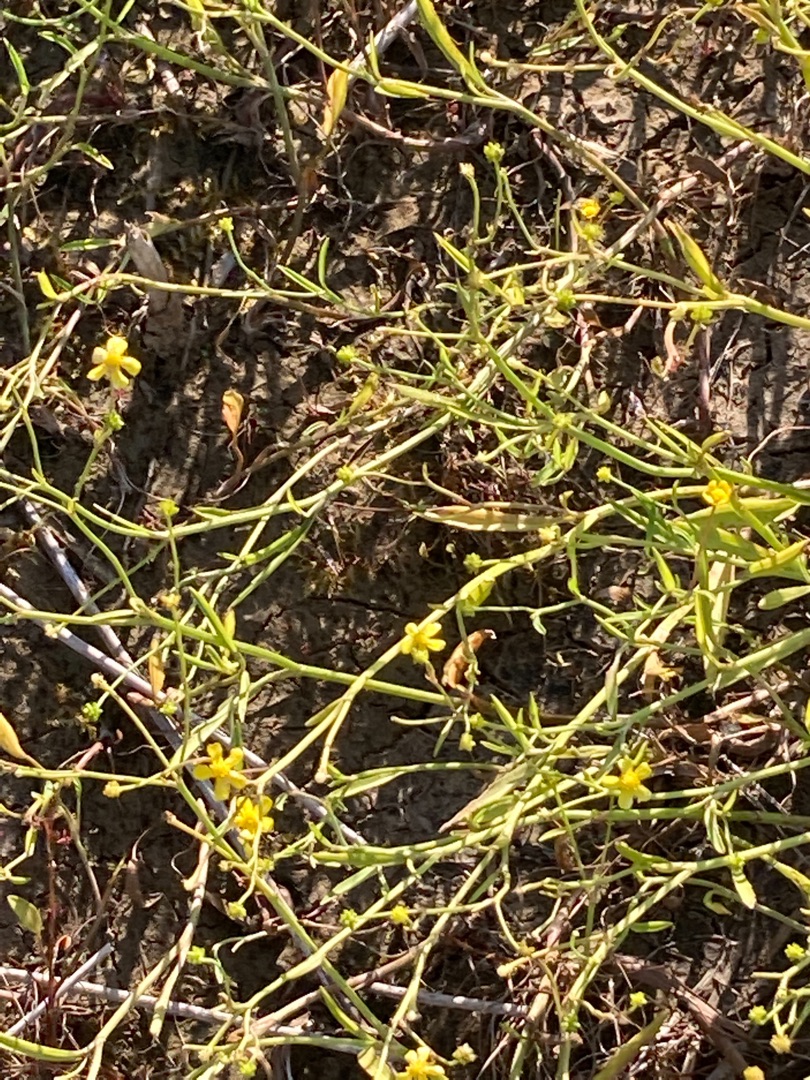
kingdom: Plantae
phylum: Tracheophyta
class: Magnoliopsida
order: Ranunculales
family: Ranunculaceae
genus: Ranunculus
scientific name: Ranunculus flammula
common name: Kær-ranunkel
